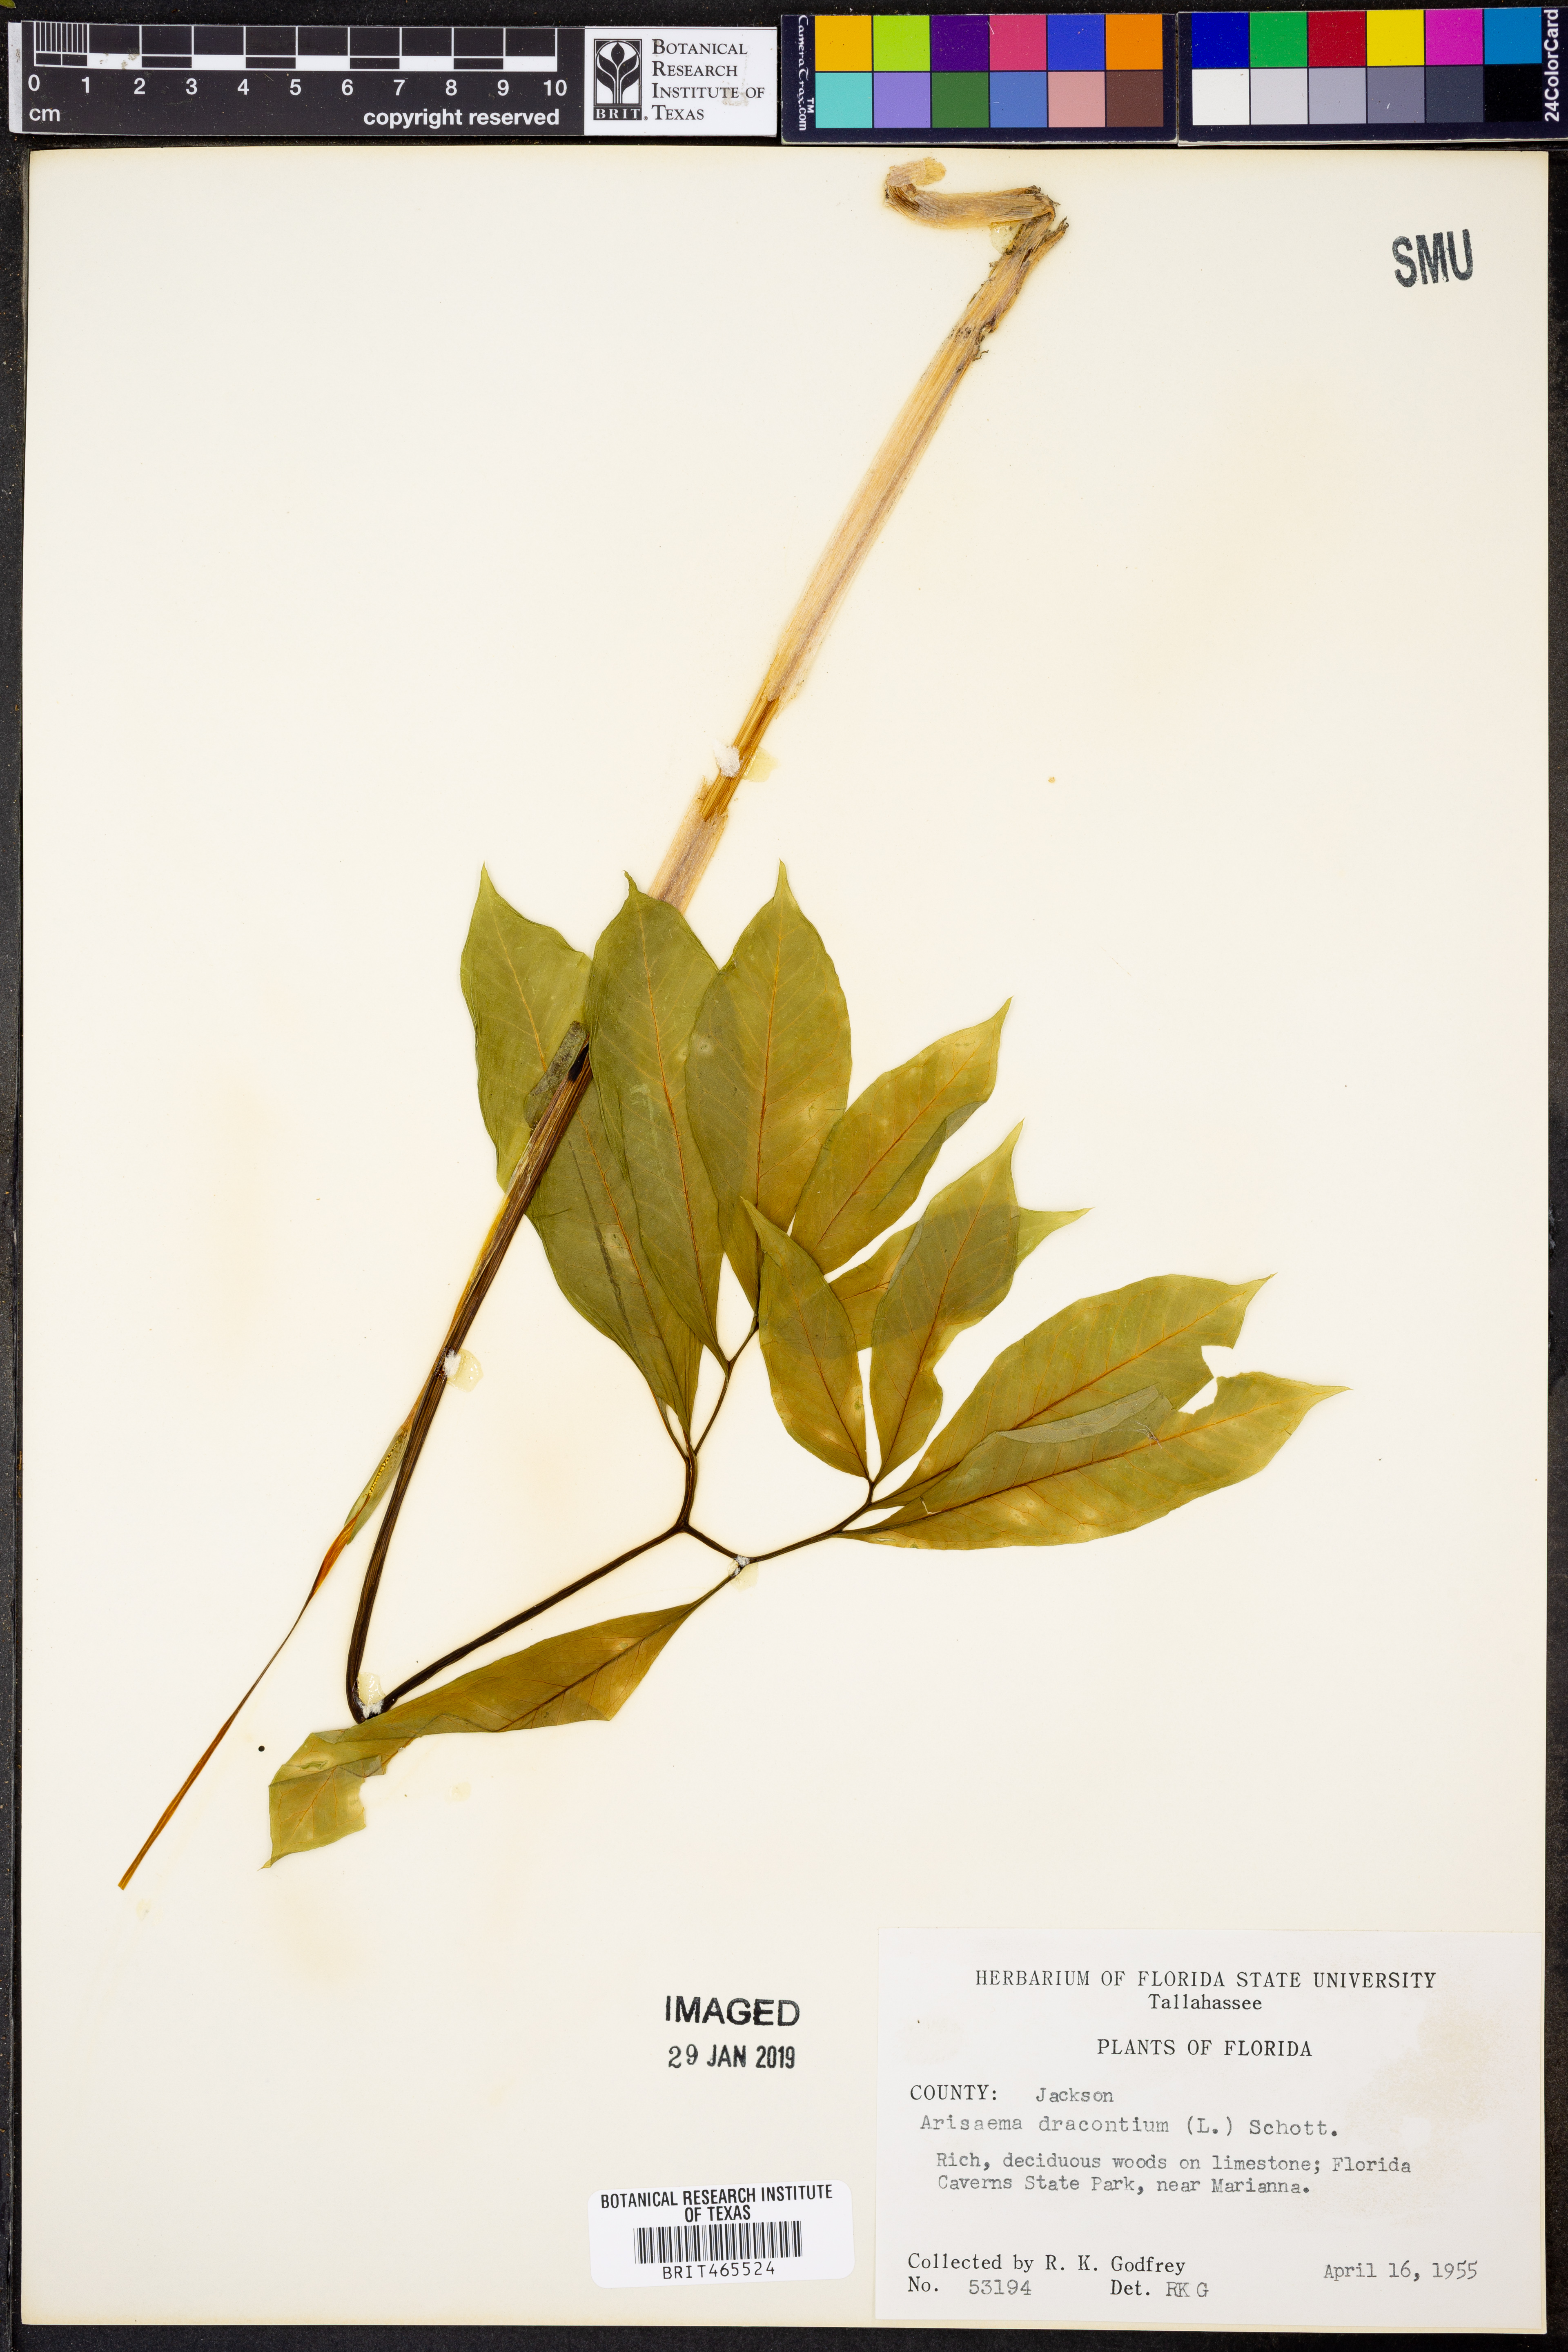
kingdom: Plantae
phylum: Tracheophyta
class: Liliopsida
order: Alismatales
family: Araceae
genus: Arisaema
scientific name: Arisaema dracontium
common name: Dragon-arum
